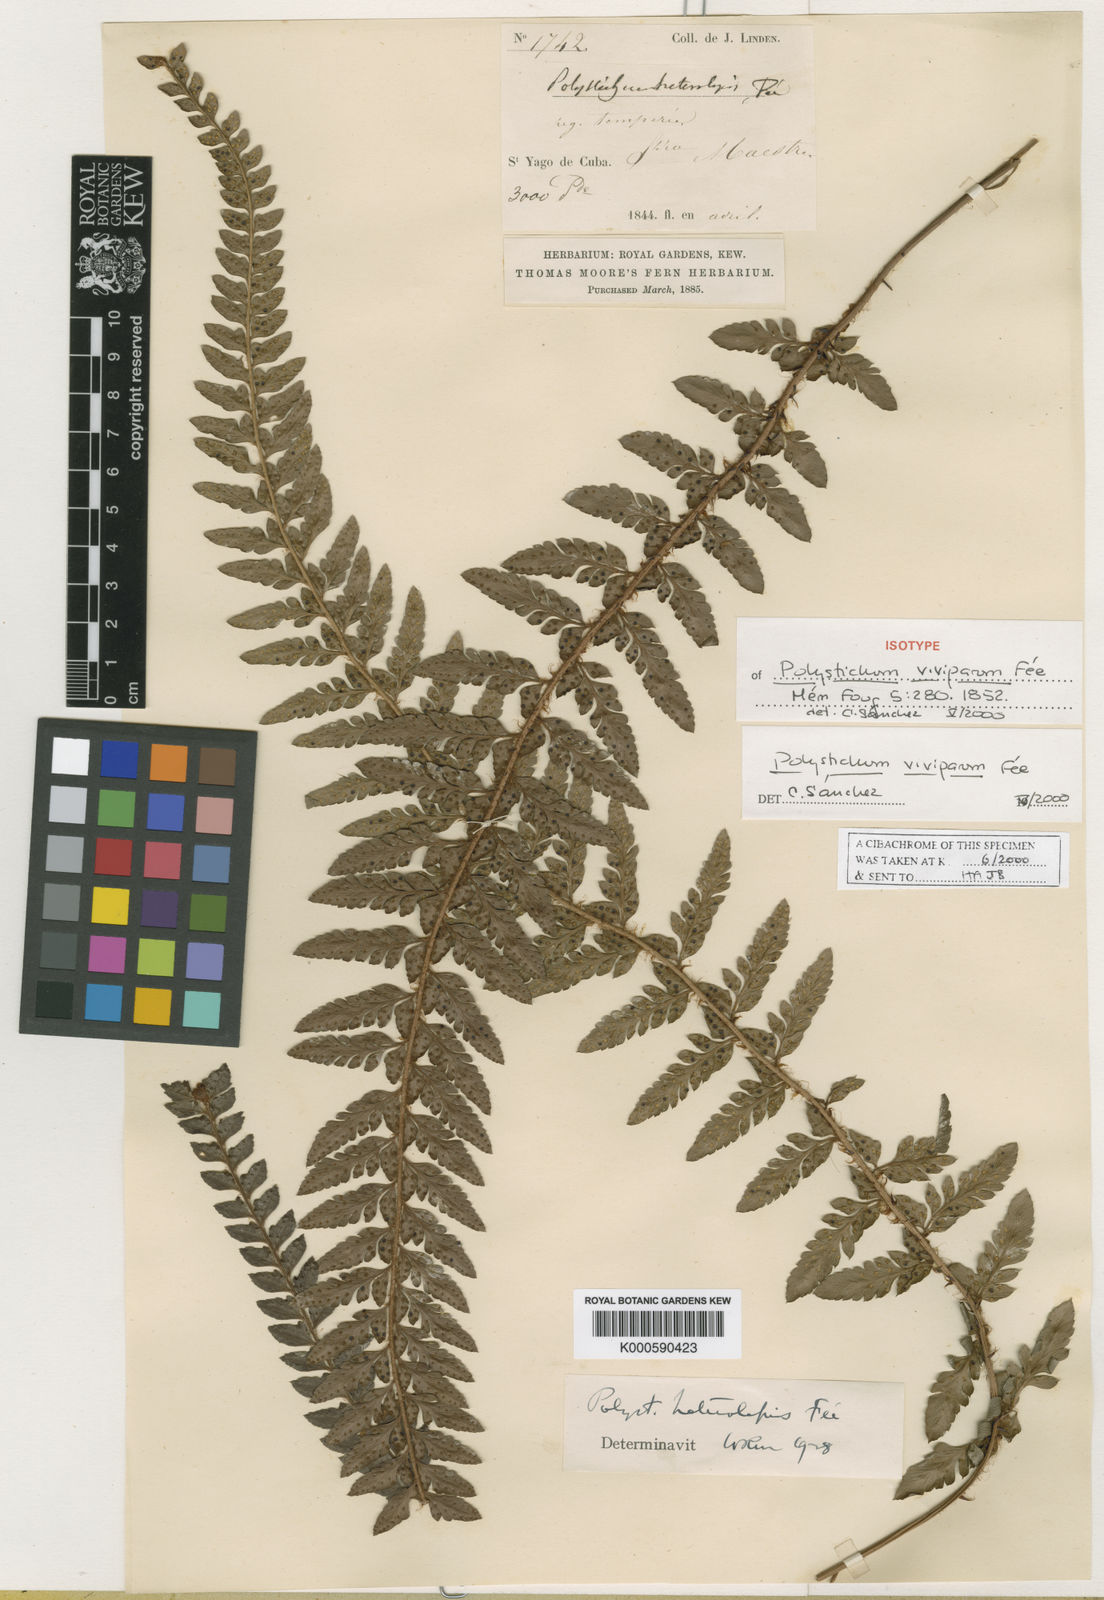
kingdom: Plantae
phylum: Tracheophyta
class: Polypodiopsida
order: Polypodiales
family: Dryopteridaceae
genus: Polystichum
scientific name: Polystichum
